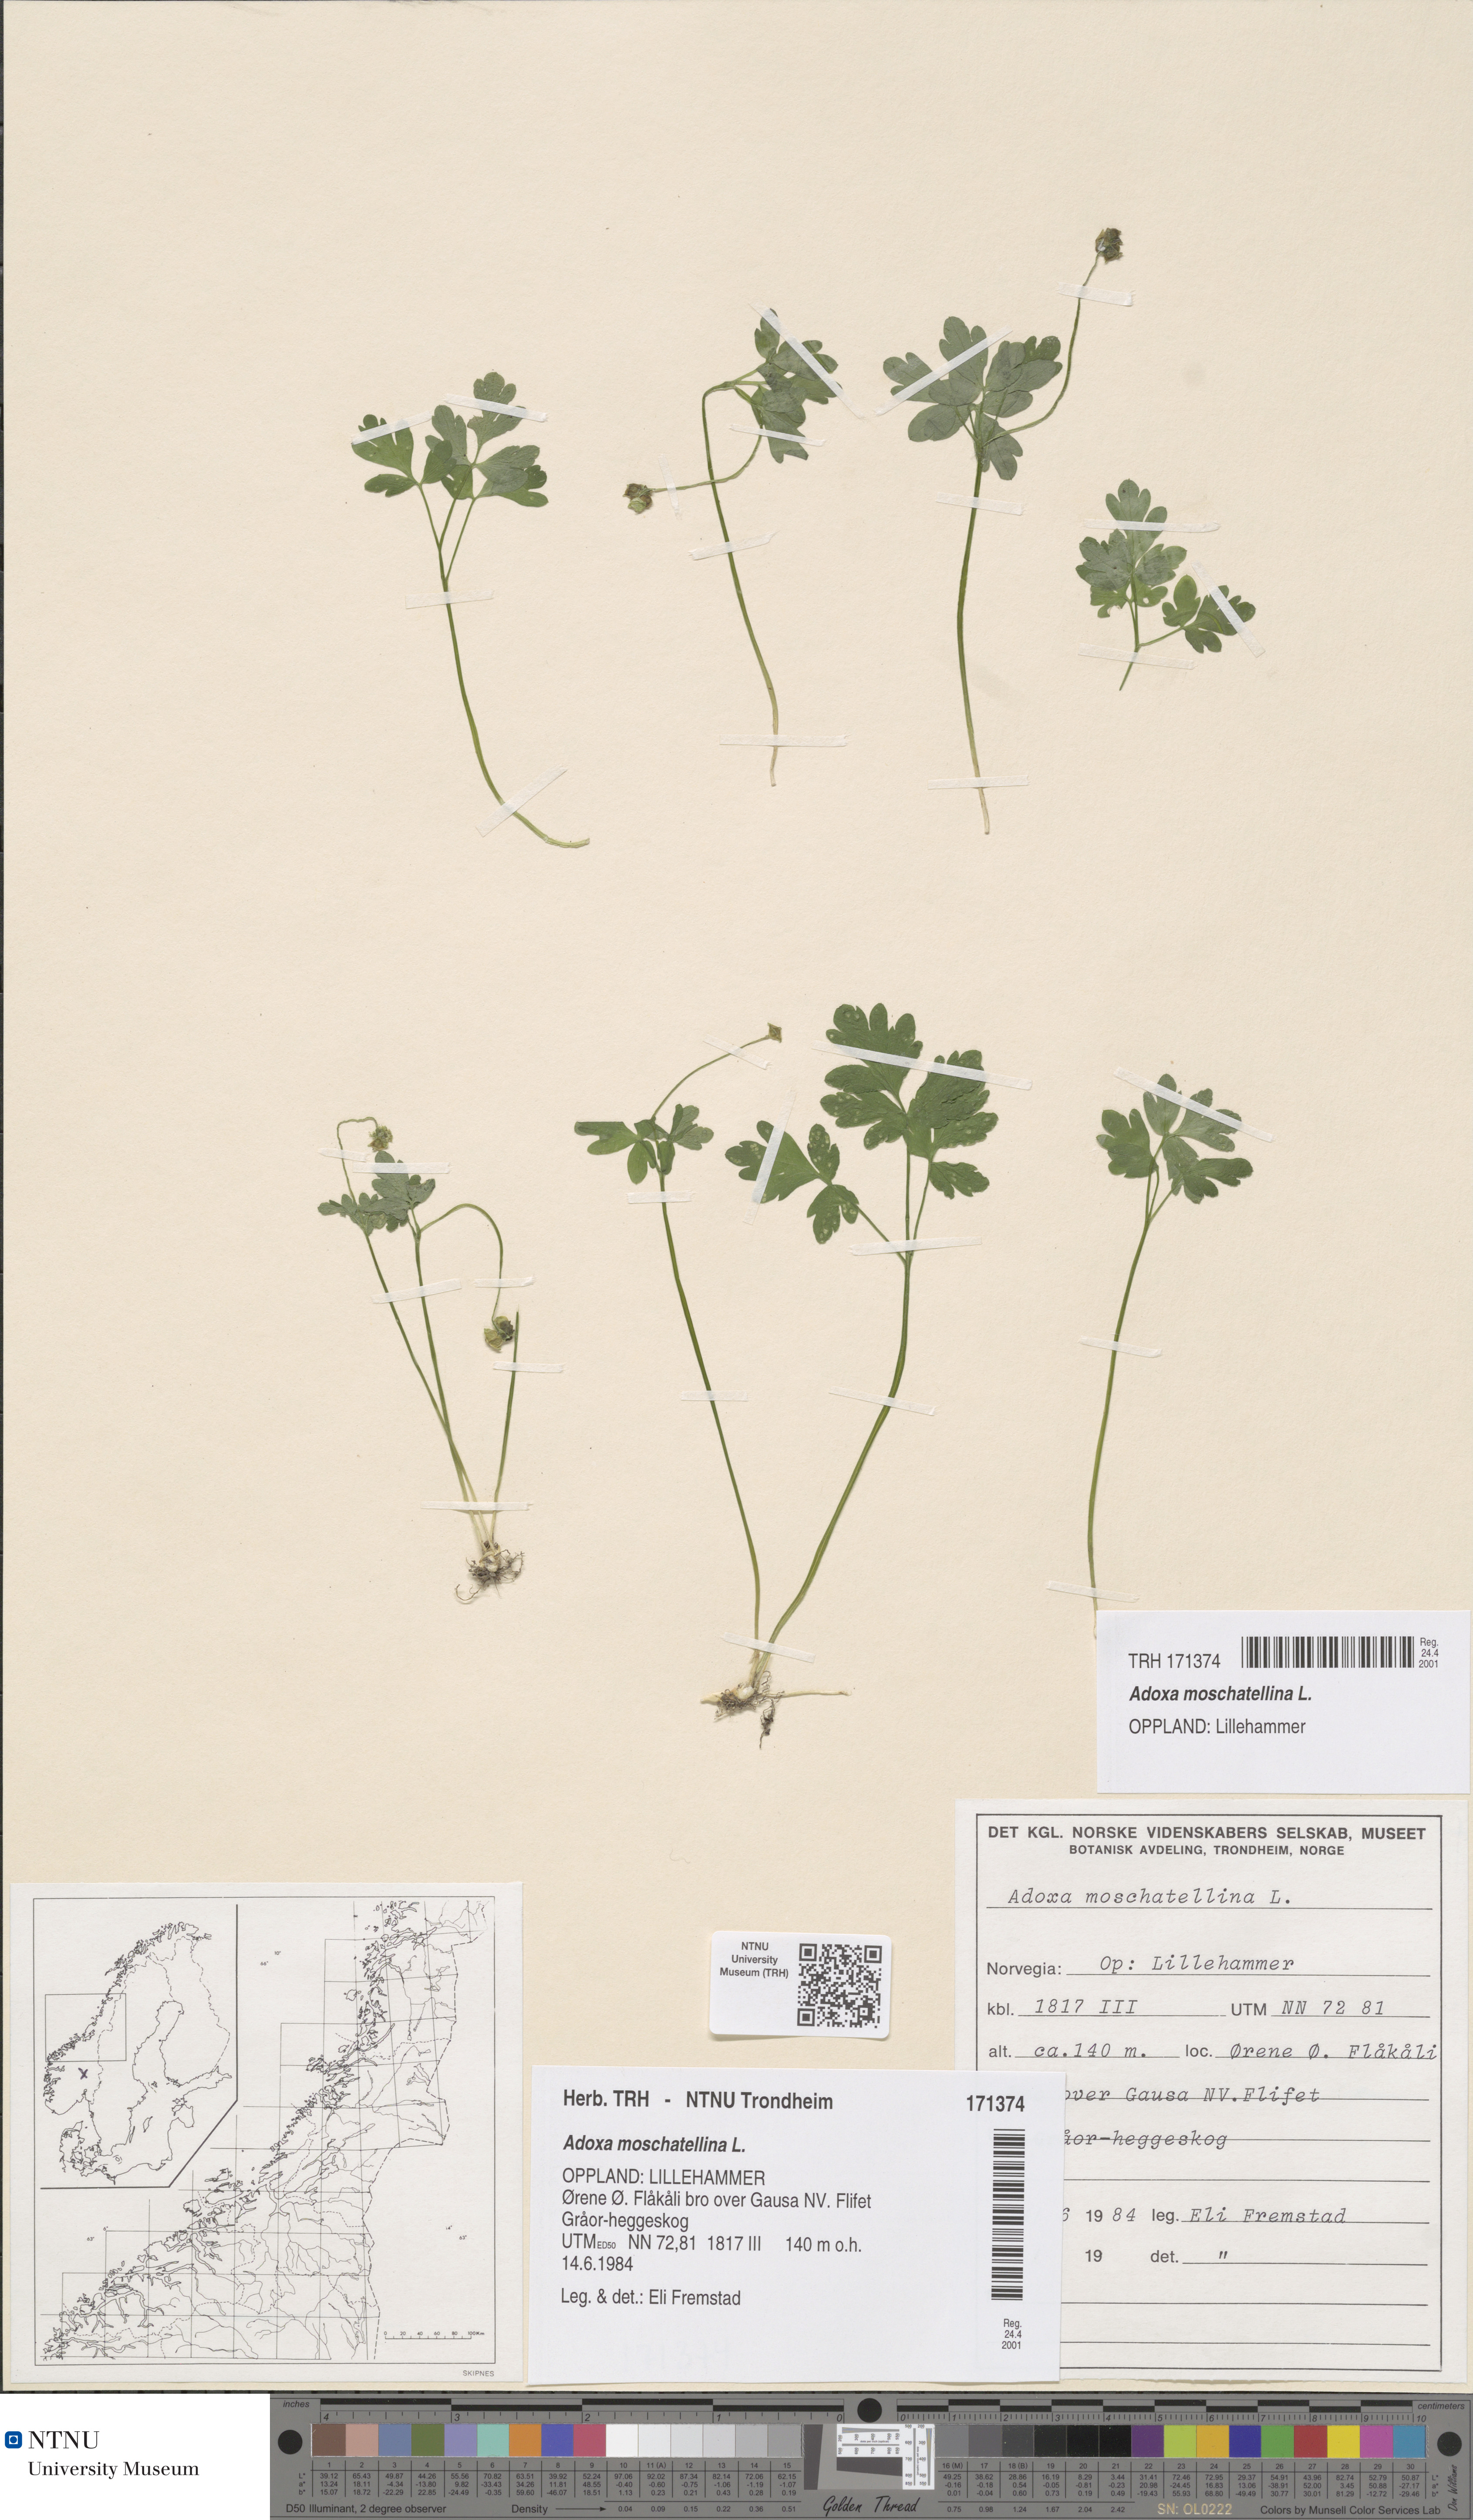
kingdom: Plantae
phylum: Tracheophyta
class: Magnoliopsida
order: Dipsacales
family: Viburnaceae
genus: Adoxa
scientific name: Adoxa moschatellina
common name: Moschatel
